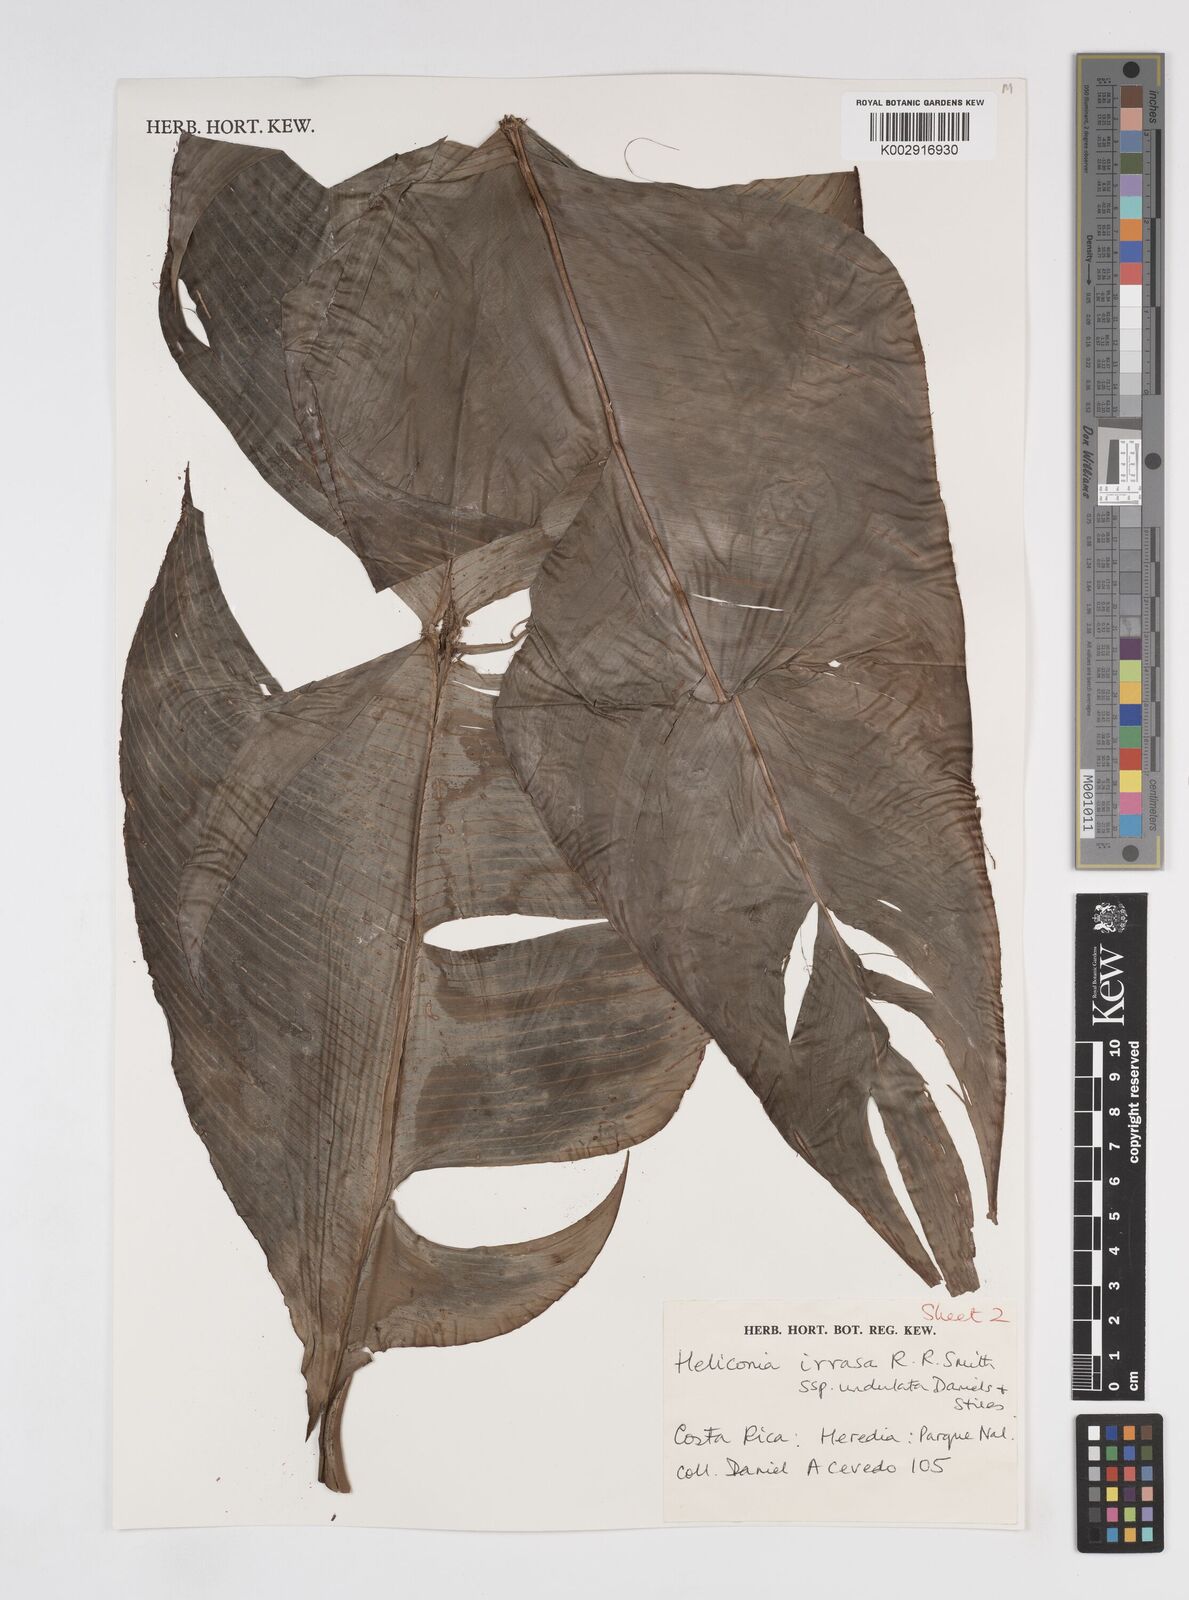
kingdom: Plantae
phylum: Tracheophyta
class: Liliopsida
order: Zingiberales
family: Heliconiaceae
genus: Heliconia
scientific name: Heliconia irrasa
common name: Wild plantain
